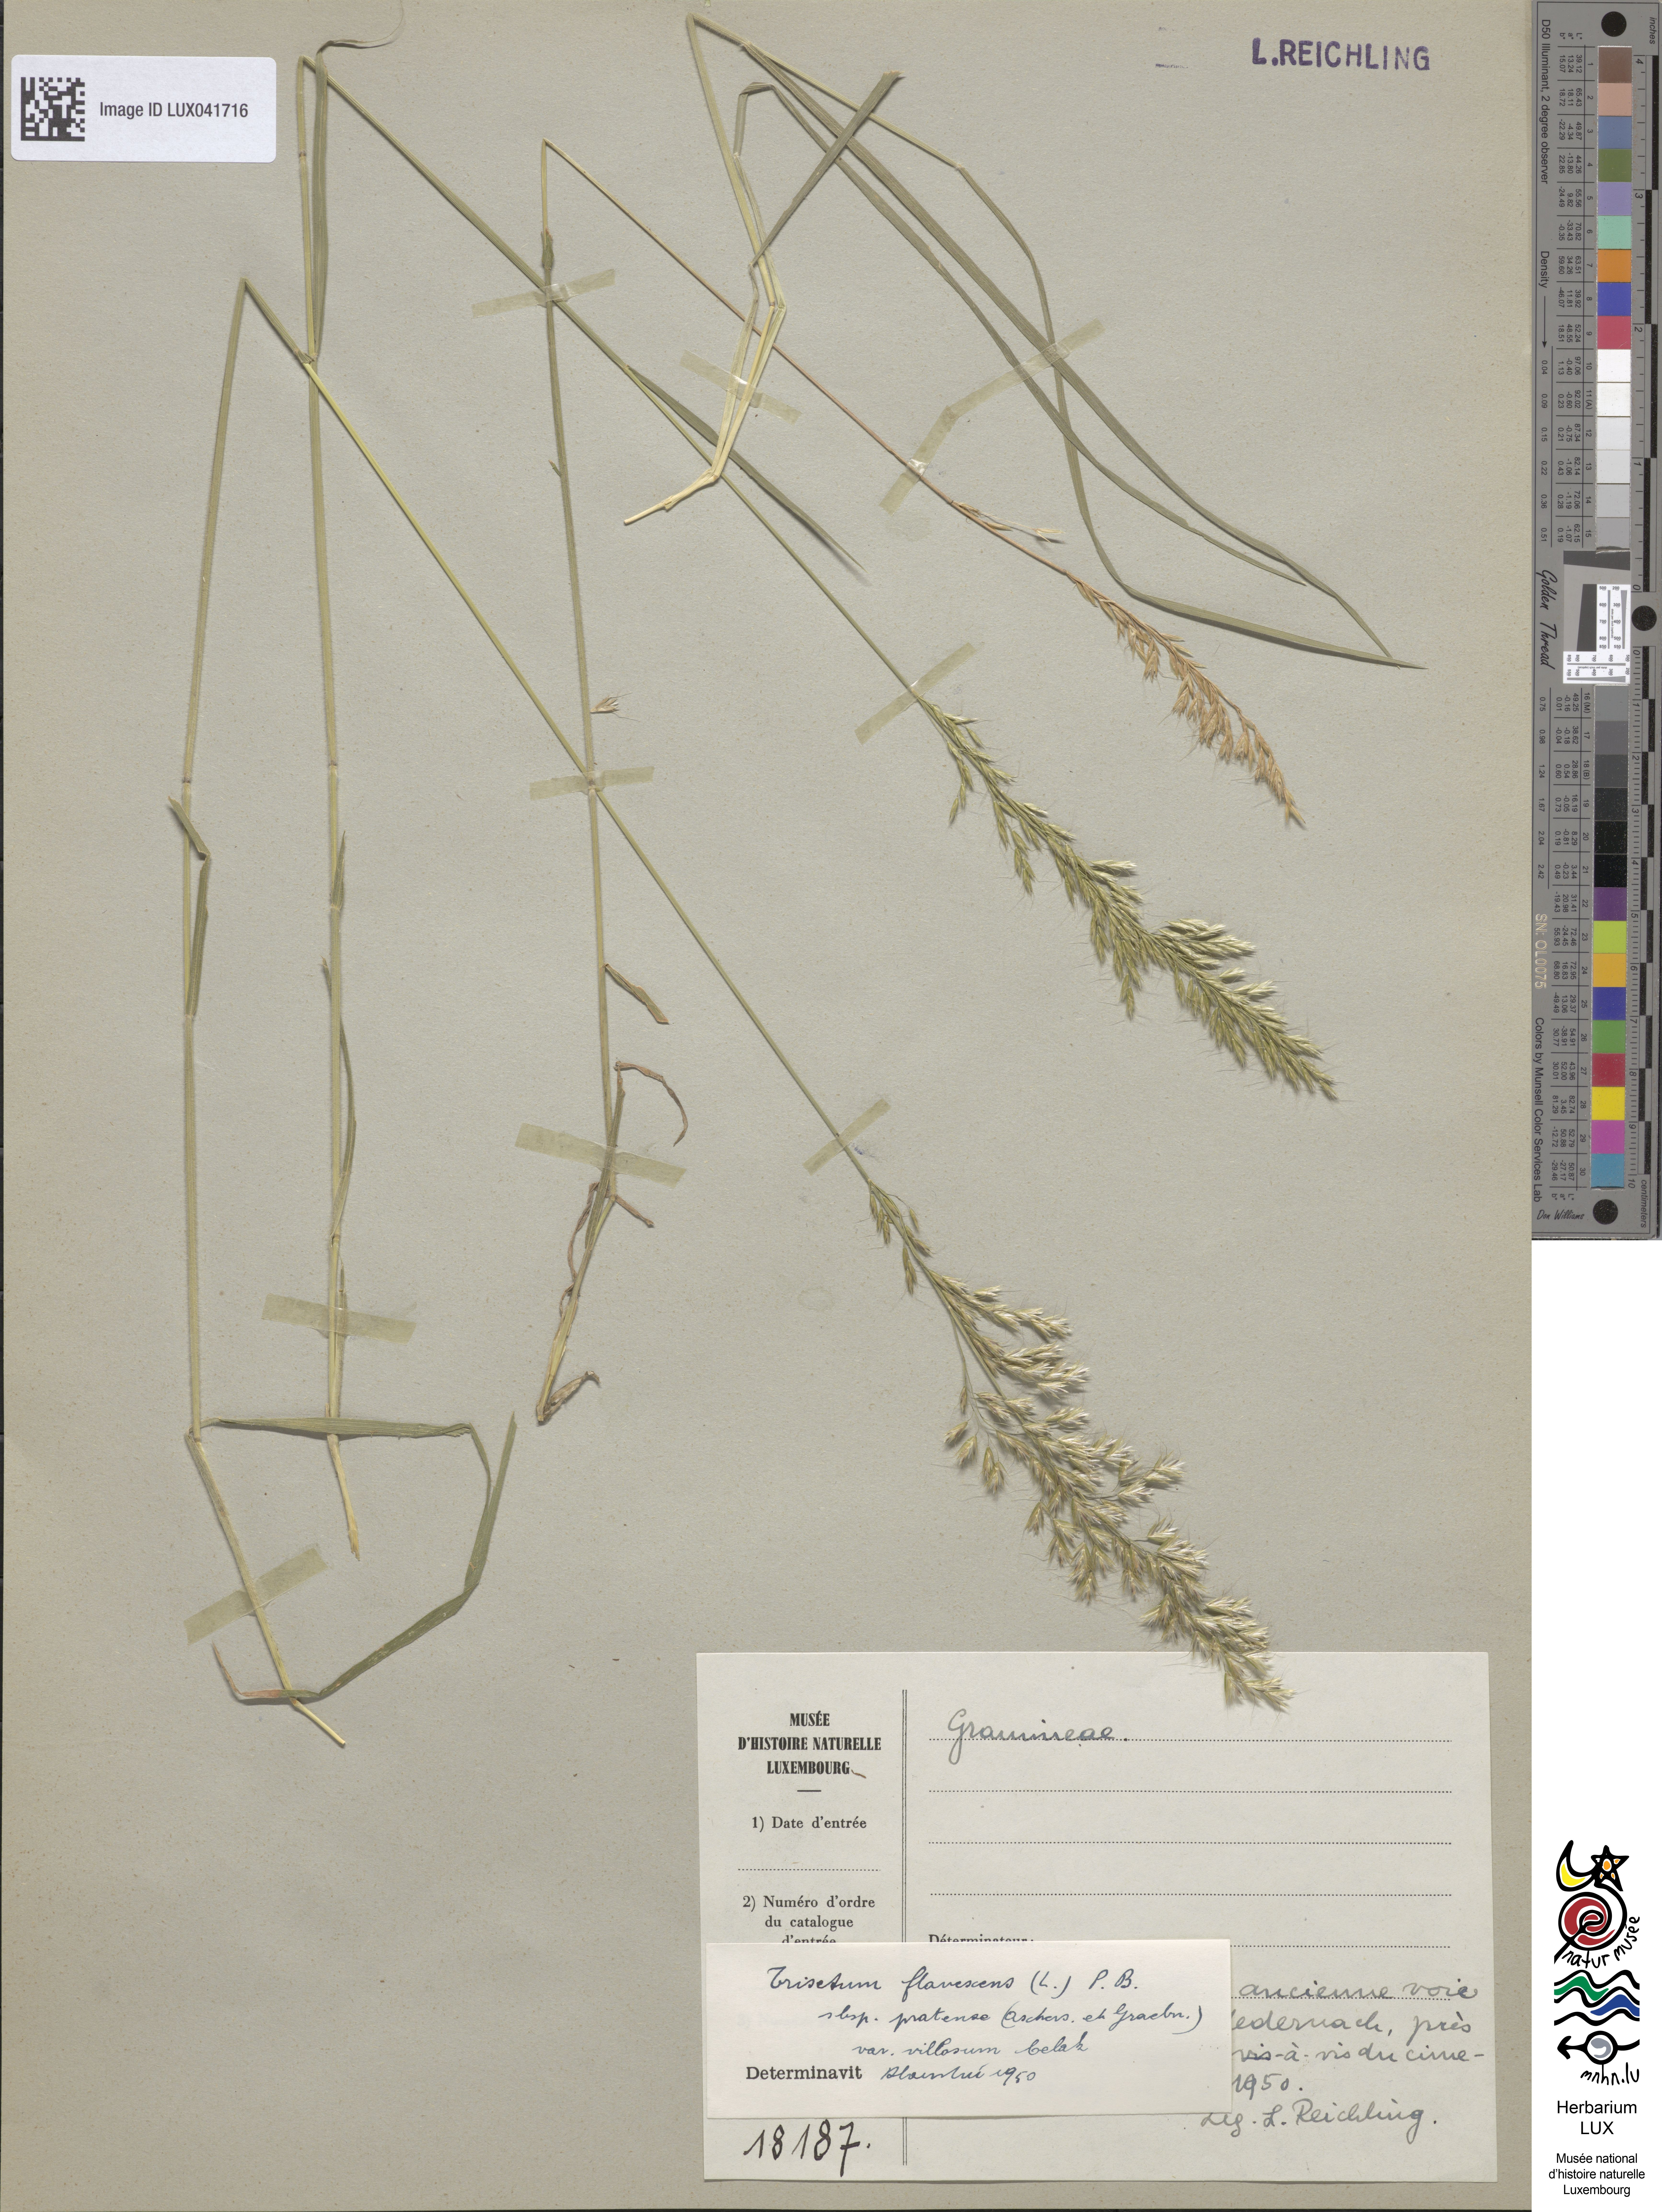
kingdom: Plantae
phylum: Tracheophyta
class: Liliopsida
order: Poales
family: Poaceae
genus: Trisetum
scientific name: Trisetum flavescens
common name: Yellow oat-grass
